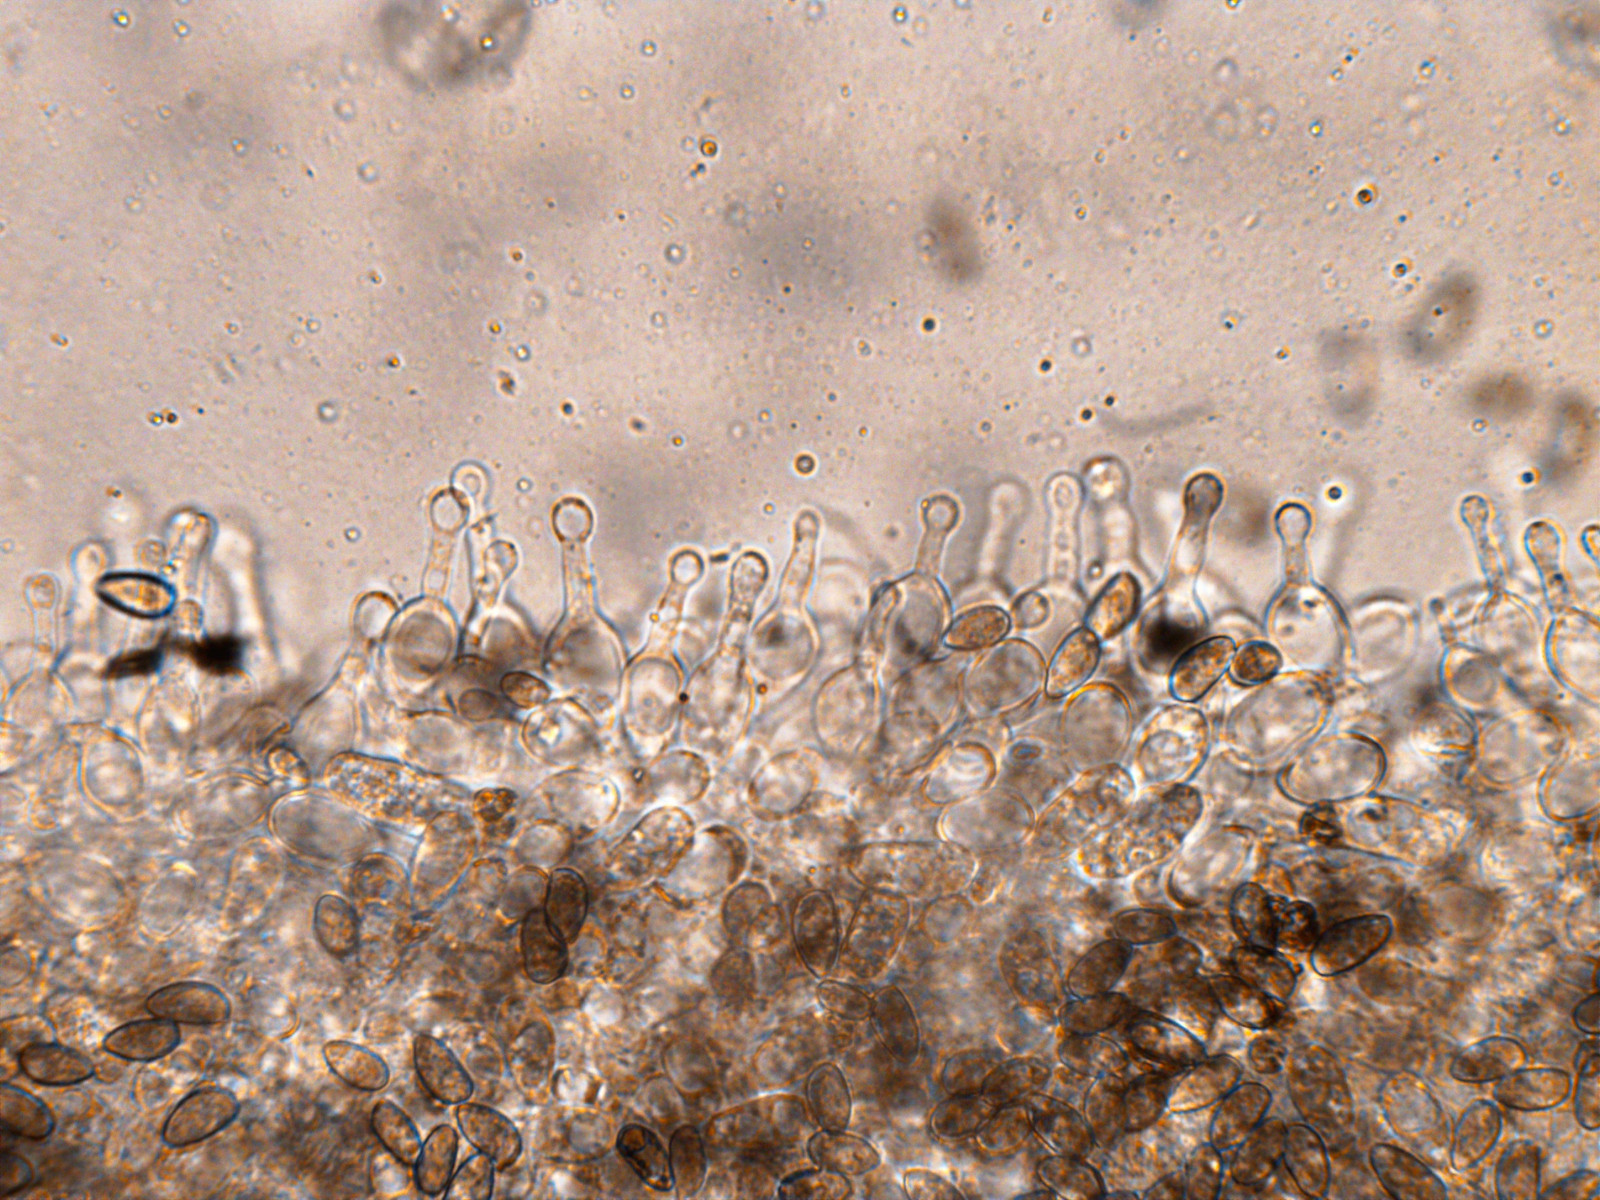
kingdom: Fungi
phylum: Basidiomycota
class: Agaricomycetes
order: Agaricales
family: Hymenogastraceae
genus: Galerina
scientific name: Galerina clavata
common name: kær-hjelmhat
